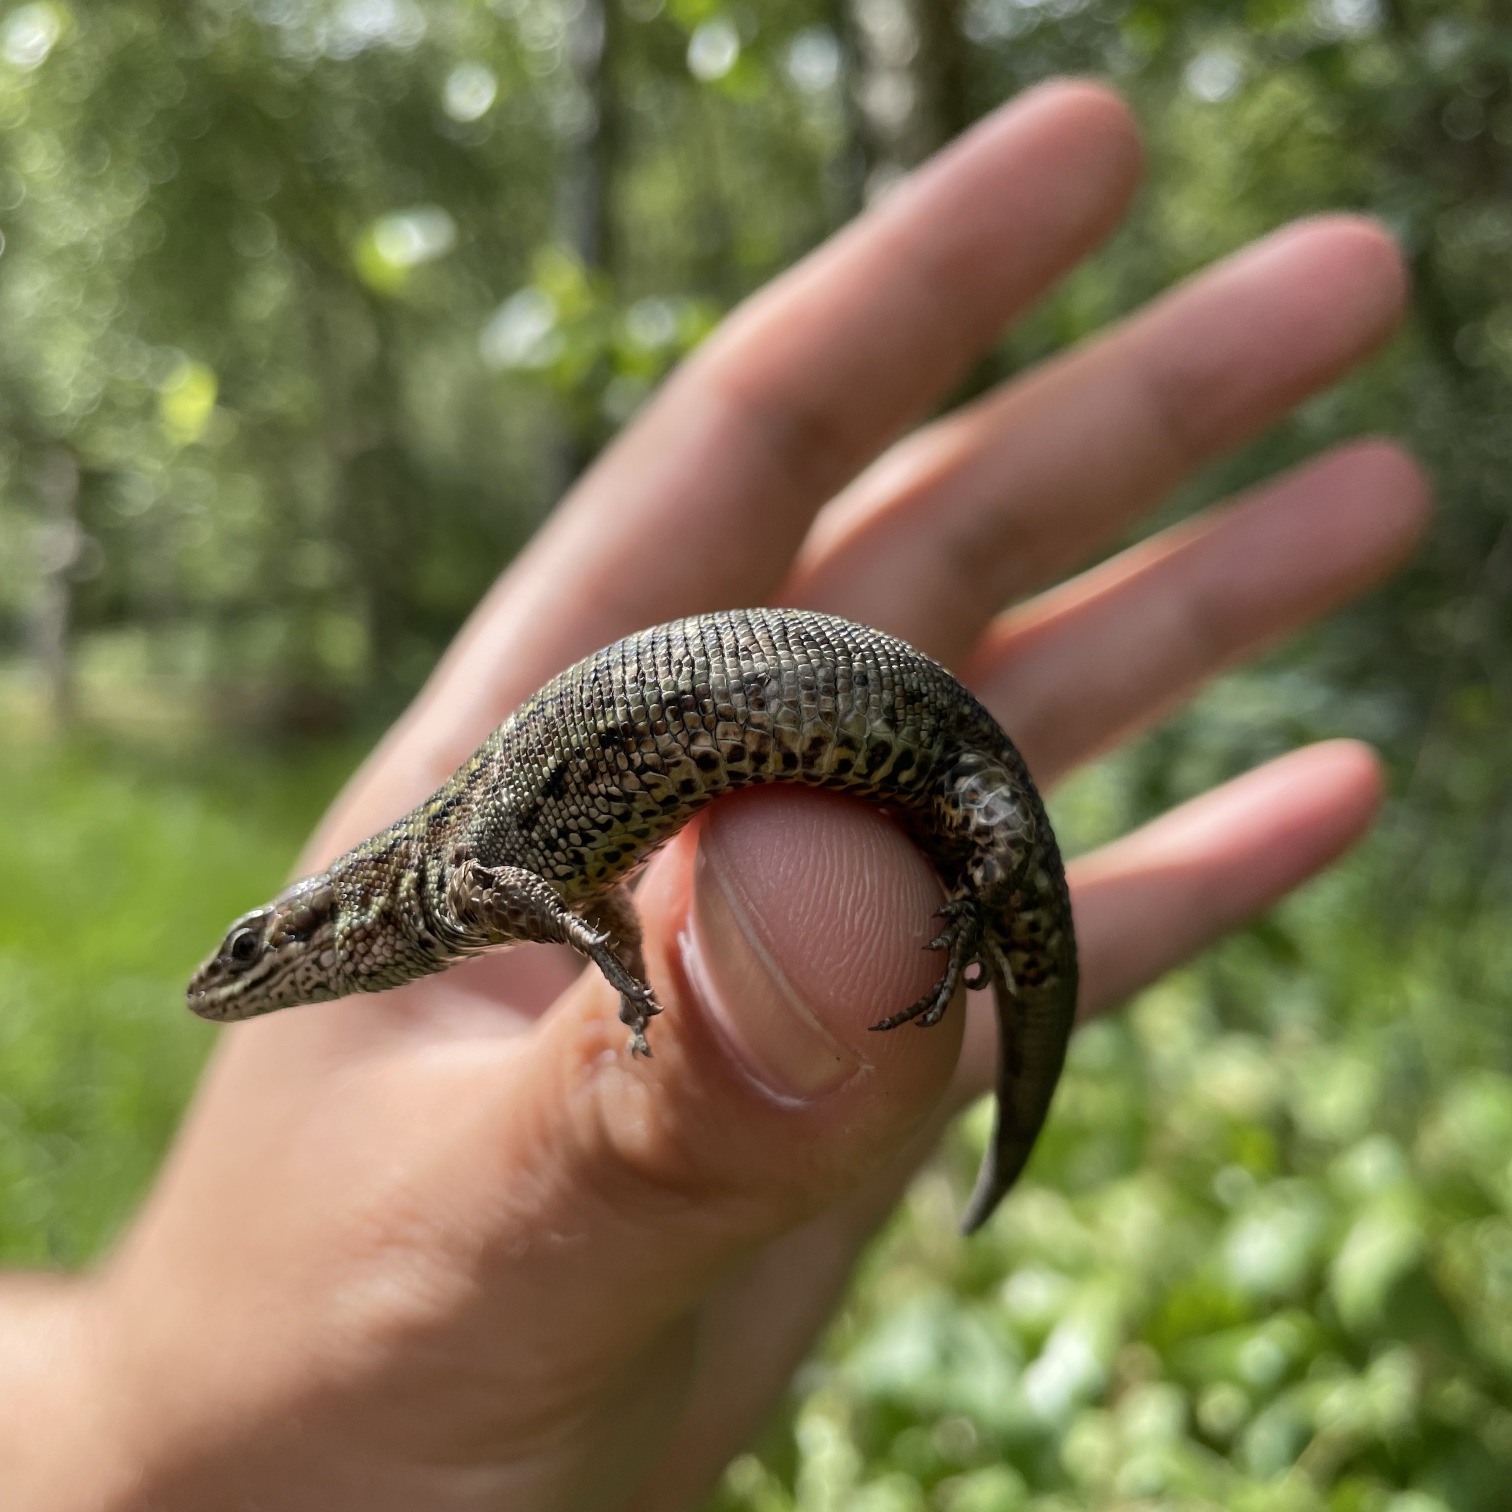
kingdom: Animalia
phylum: Chordata
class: Squamata
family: Lacertidae
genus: Zootoca
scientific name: Zootoca vivipara
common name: Skovfirben
